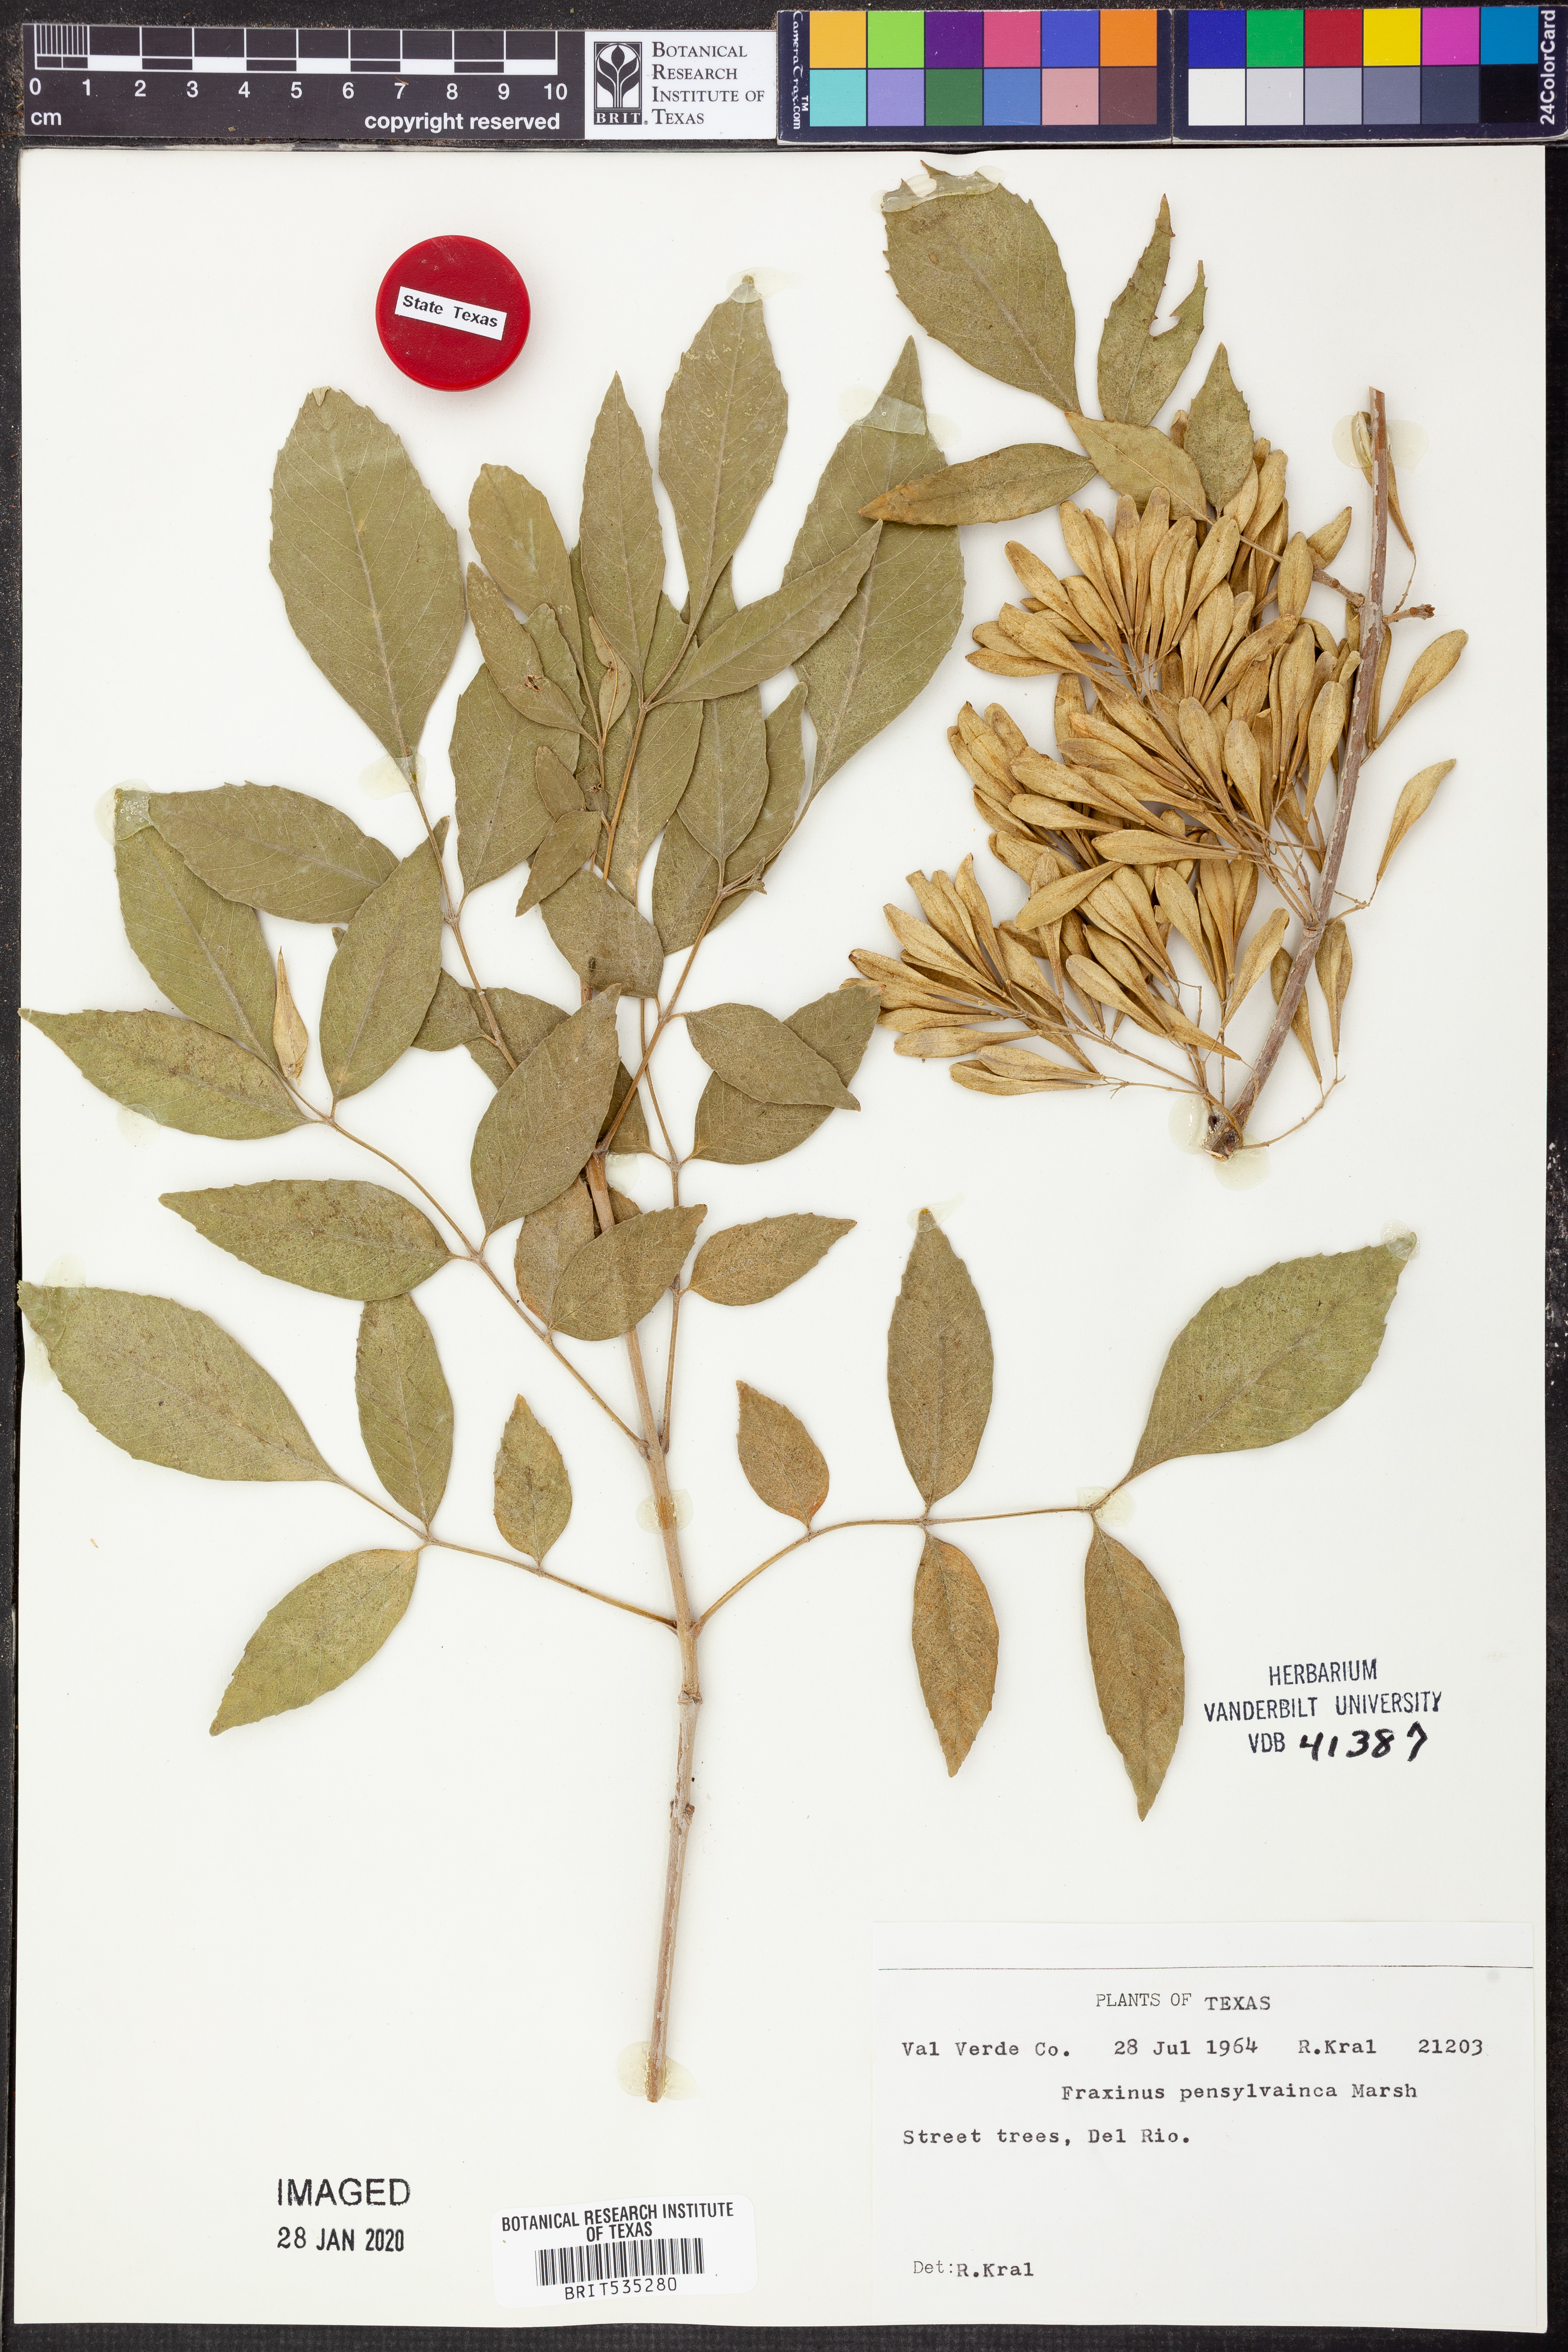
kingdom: Plantae
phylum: Tracheophyta
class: Magnoliopsida
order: Lamiales
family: Oleaceae
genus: Fraxinus
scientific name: Fraxinus pennsylvanica
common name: Green ash
